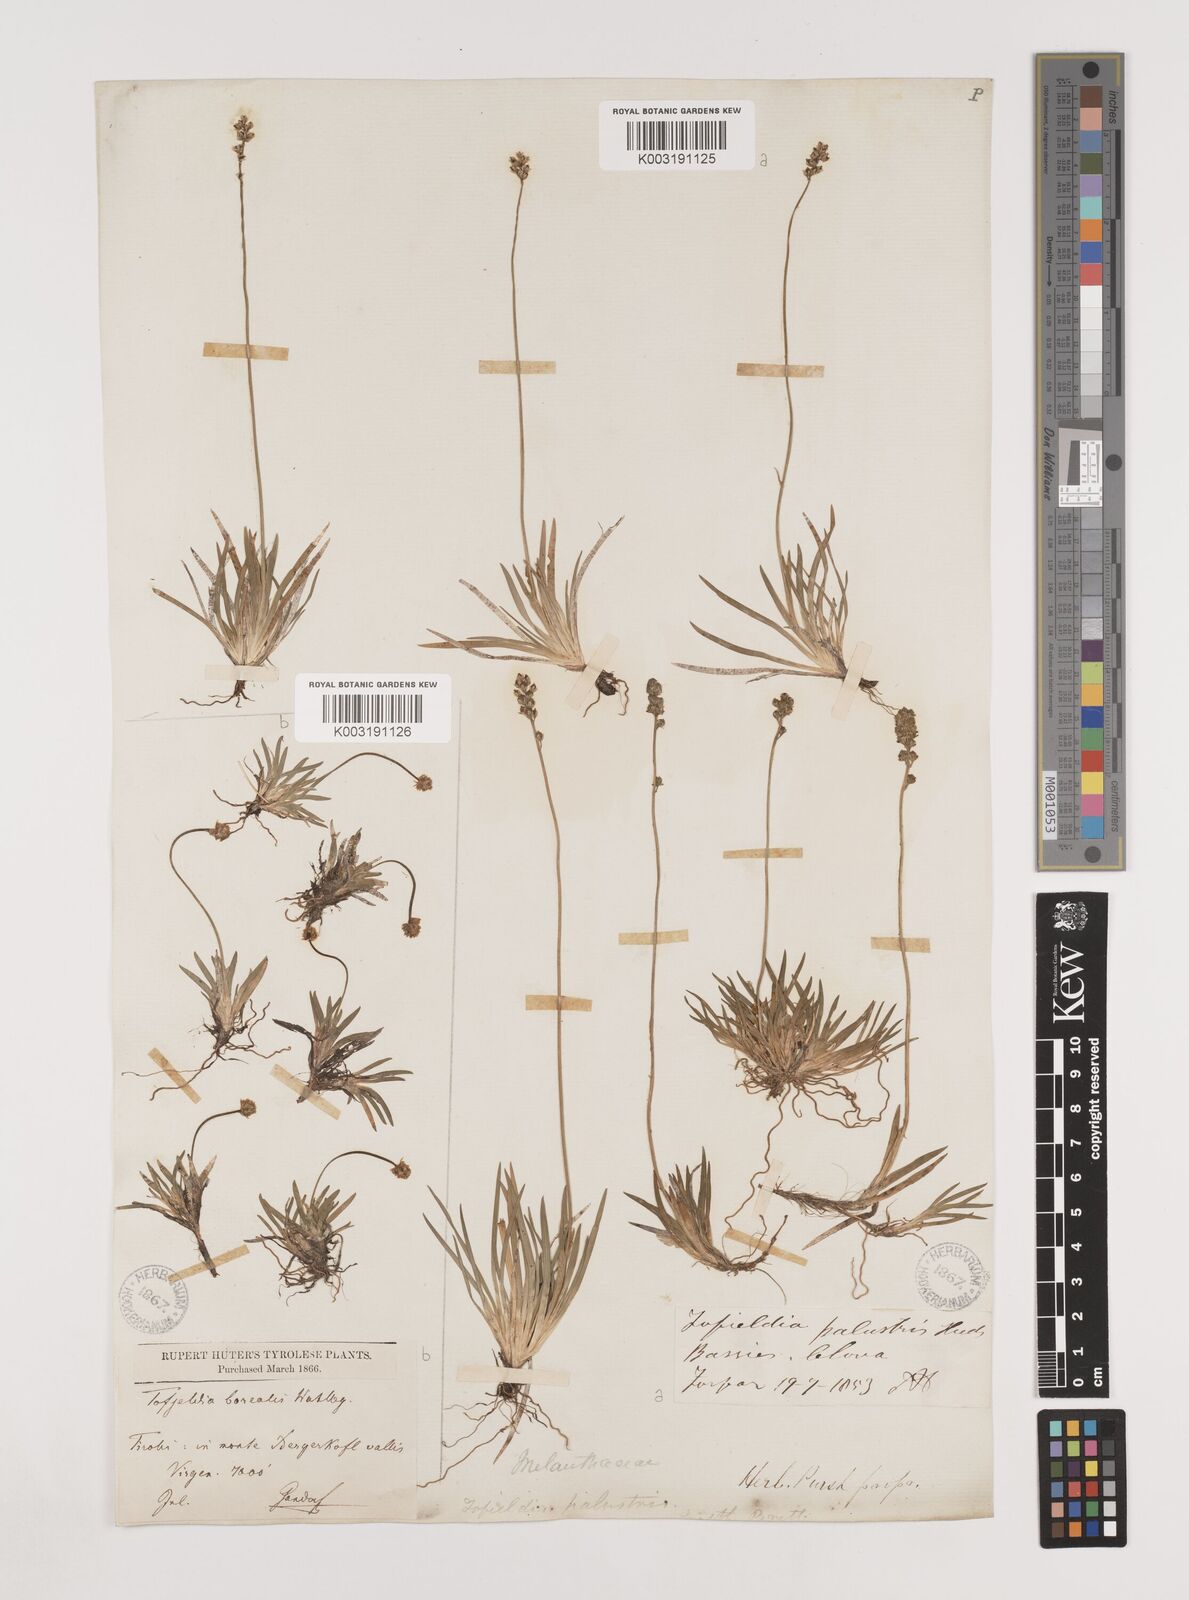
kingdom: Plantae
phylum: Tracheophyta
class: Liliopsida
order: Alismatales
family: Tofieldiaceae
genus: Tofieldia
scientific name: Tofieldia pusilla
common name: Scottish false asphodel
